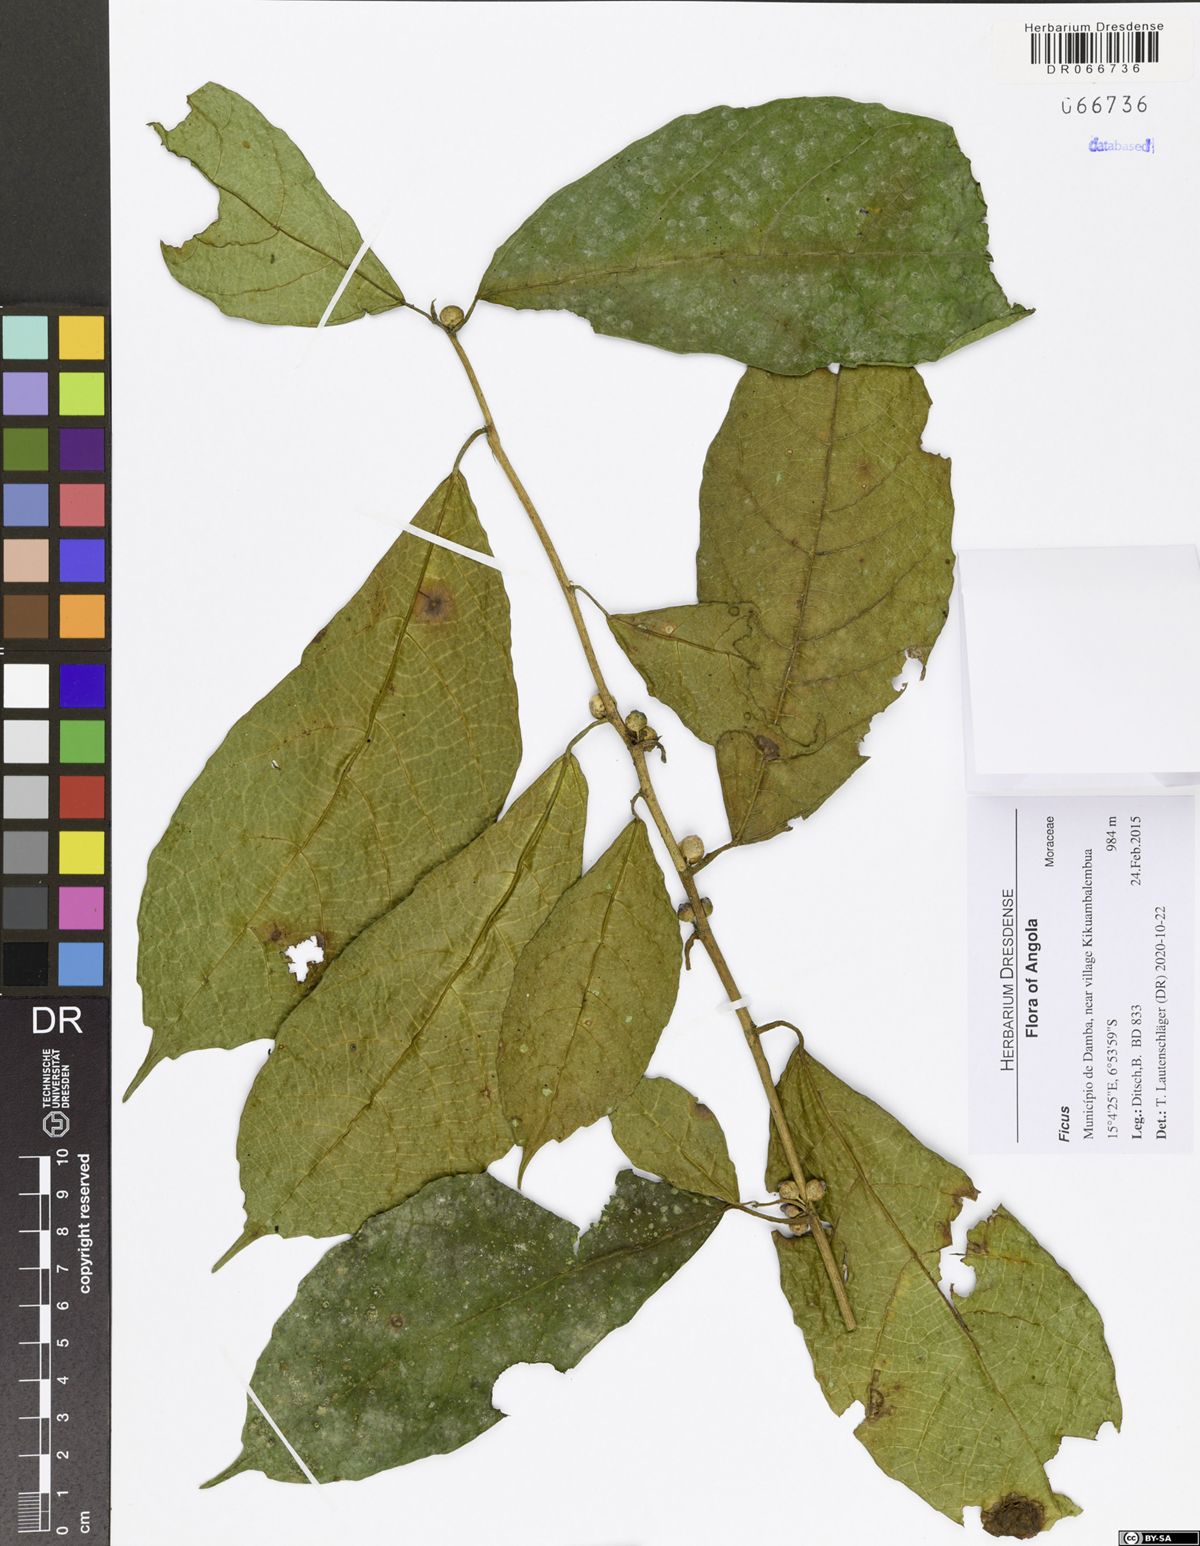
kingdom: Plantae
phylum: Tracheophyta
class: Magnoliopsida
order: Rosales
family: Moraceae
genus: Ficus
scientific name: Ficus asperifolia
